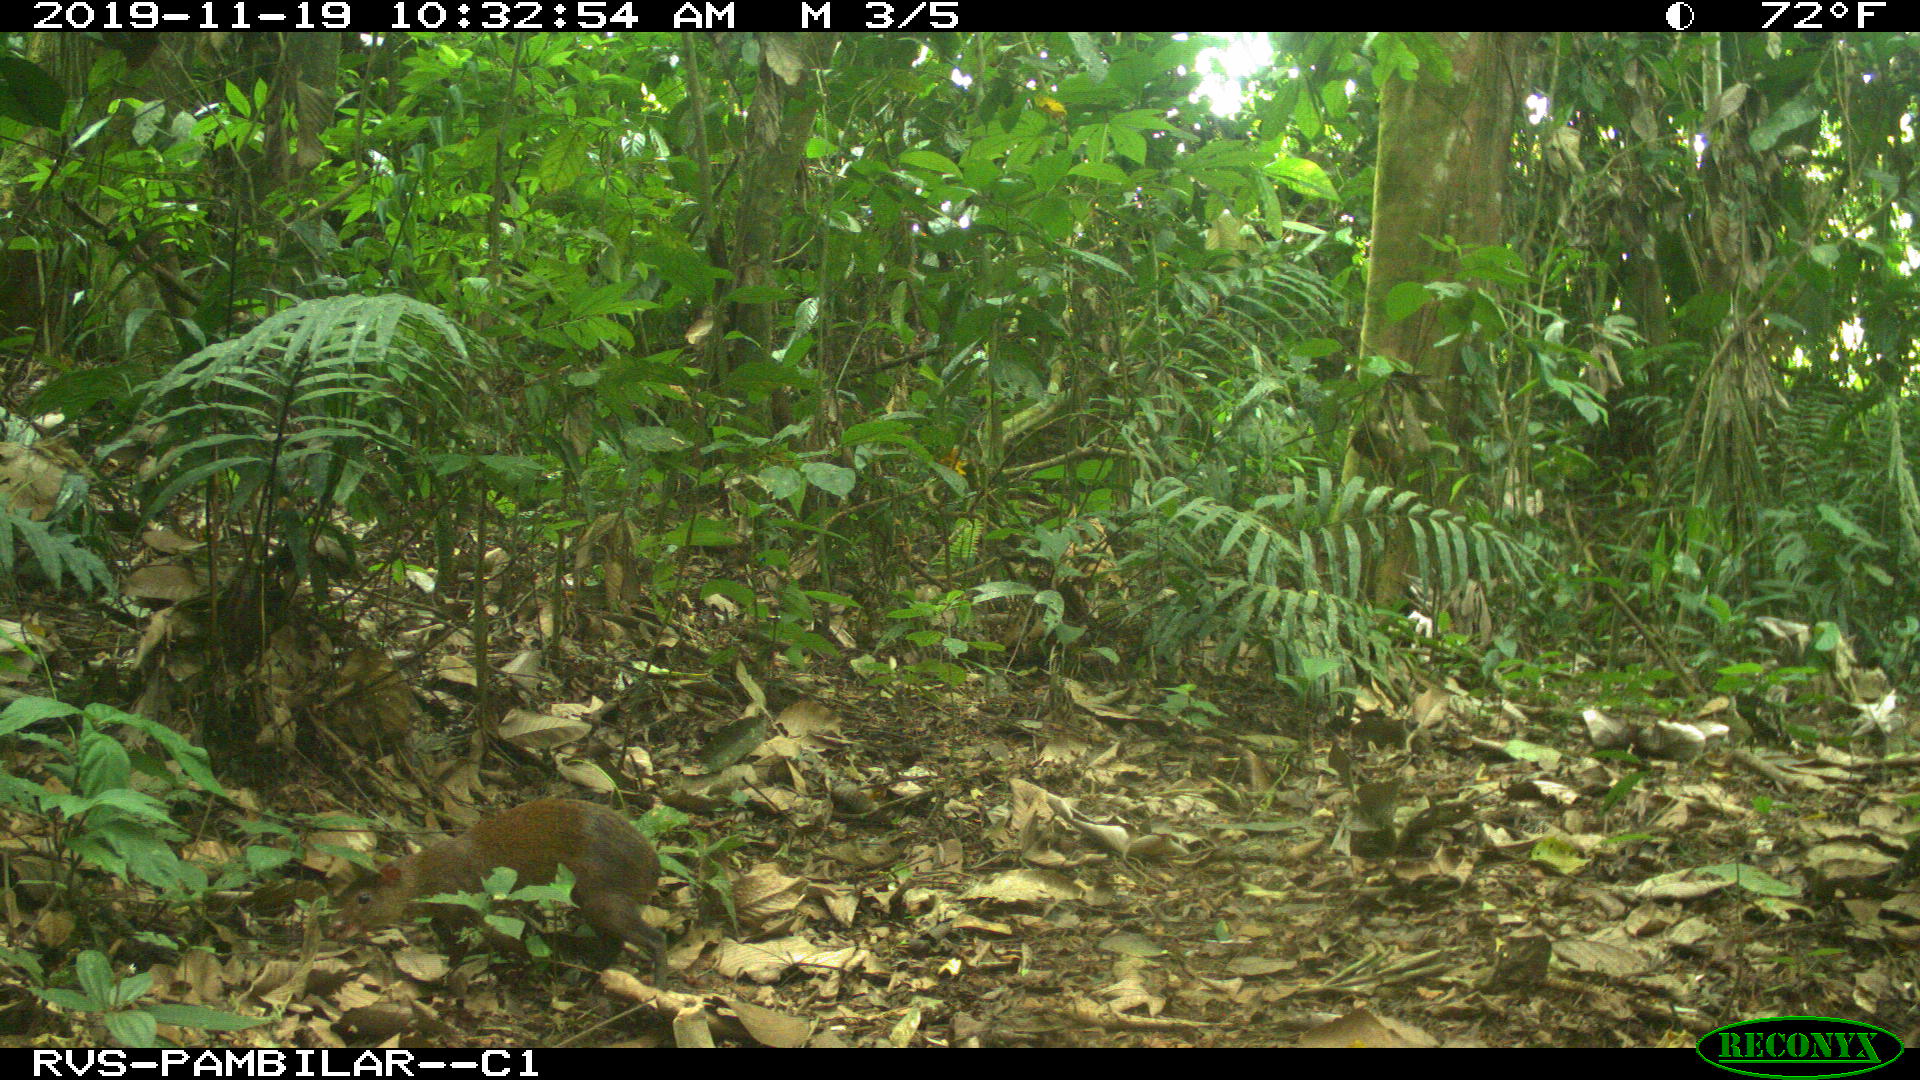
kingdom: Animalia
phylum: Chordata
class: Mammalia
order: Rodentia
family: Dasyproctidae
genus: Dasyprocta
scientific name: Dasyprocta punctata
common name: Central american agouti
